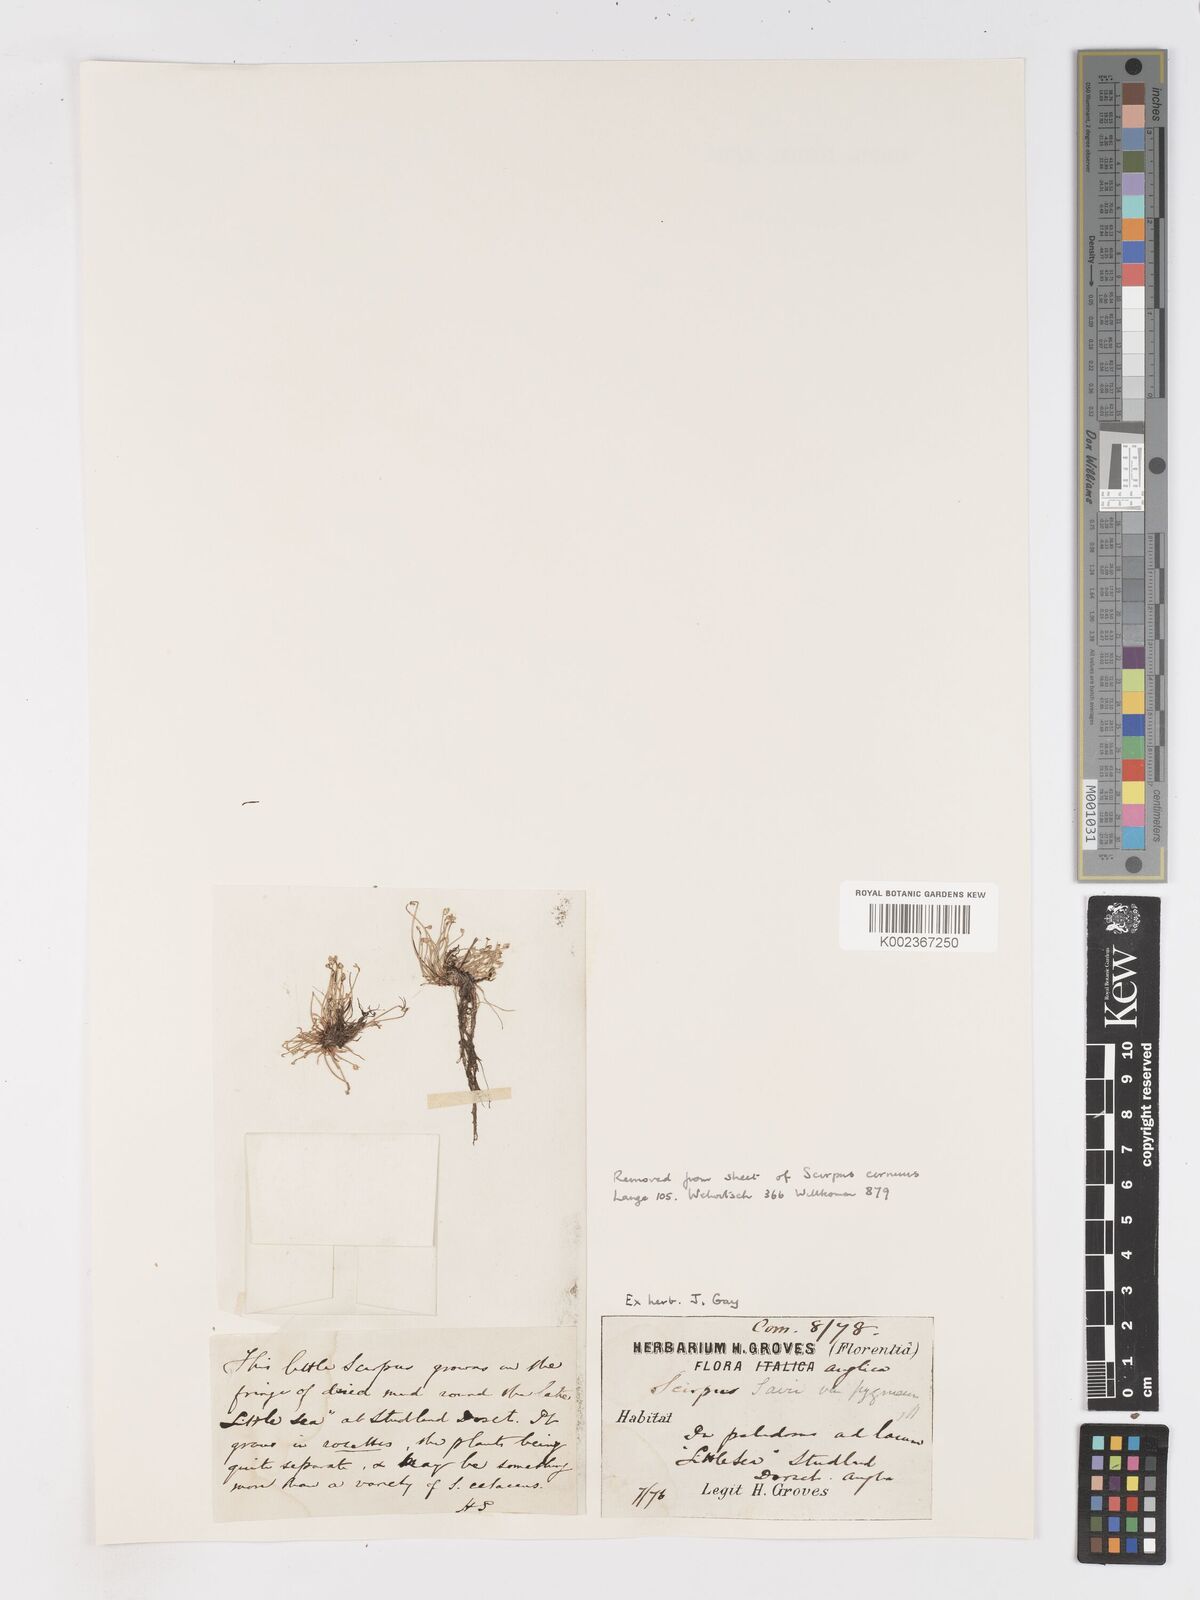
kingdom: Plantae
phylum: Tracheophyta
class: Liliopsida
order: Poales
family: Cyperaceae
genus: Isolepis
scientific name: Isolepis cernua
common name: Slender club-rush
